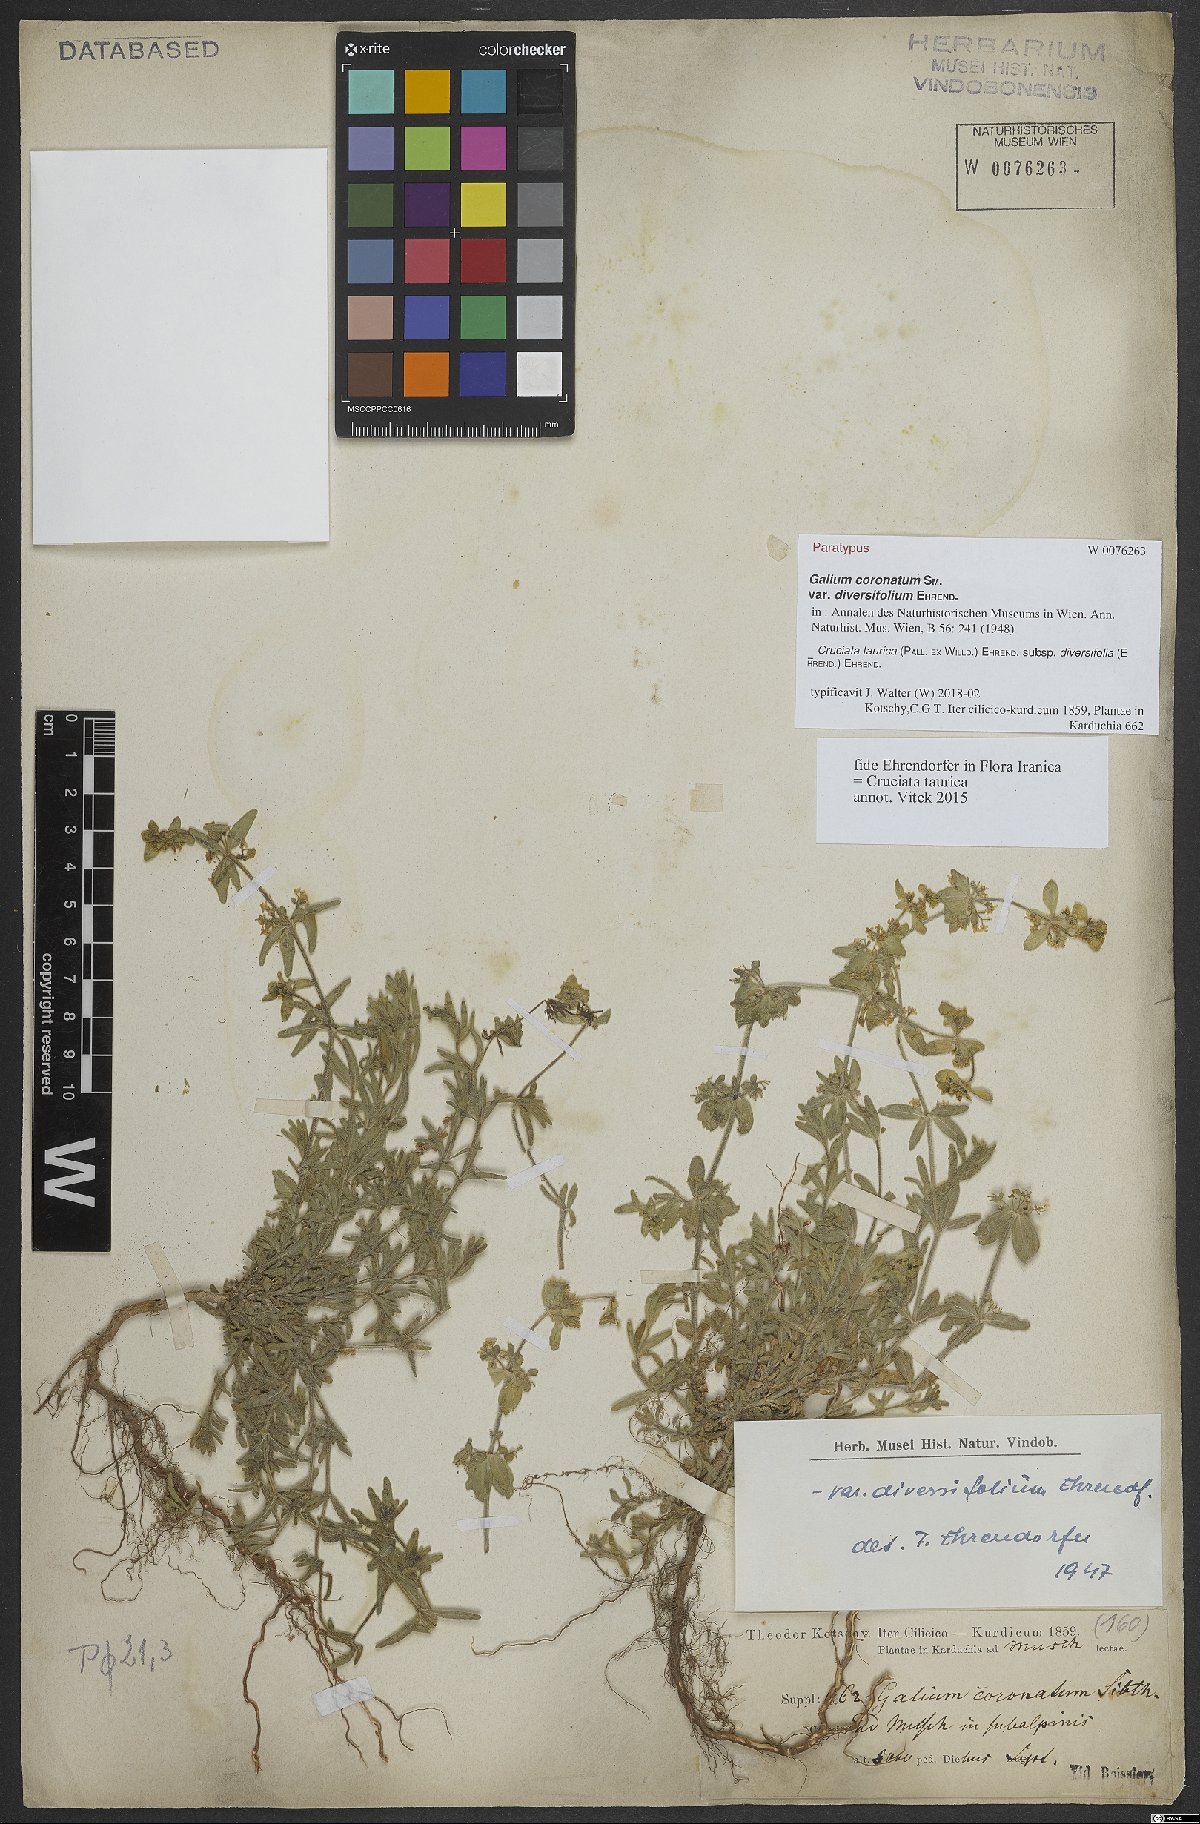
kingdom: Plantae
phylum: Tracheophyta
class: Magnoliopsida
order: Gentianales
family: Rubiaceae
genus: Cruciata
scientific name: Cruciata taurica
